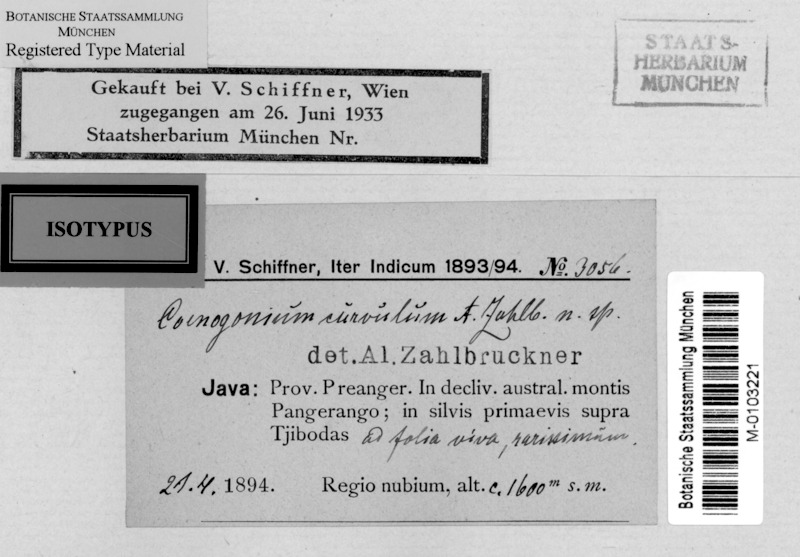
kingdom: Fungi
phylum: Ascomycota
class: Lecanoromycetes
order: Ostropales
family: Coenogoniaceae
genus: Coenogonium
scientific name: Coenogonium curvulum
